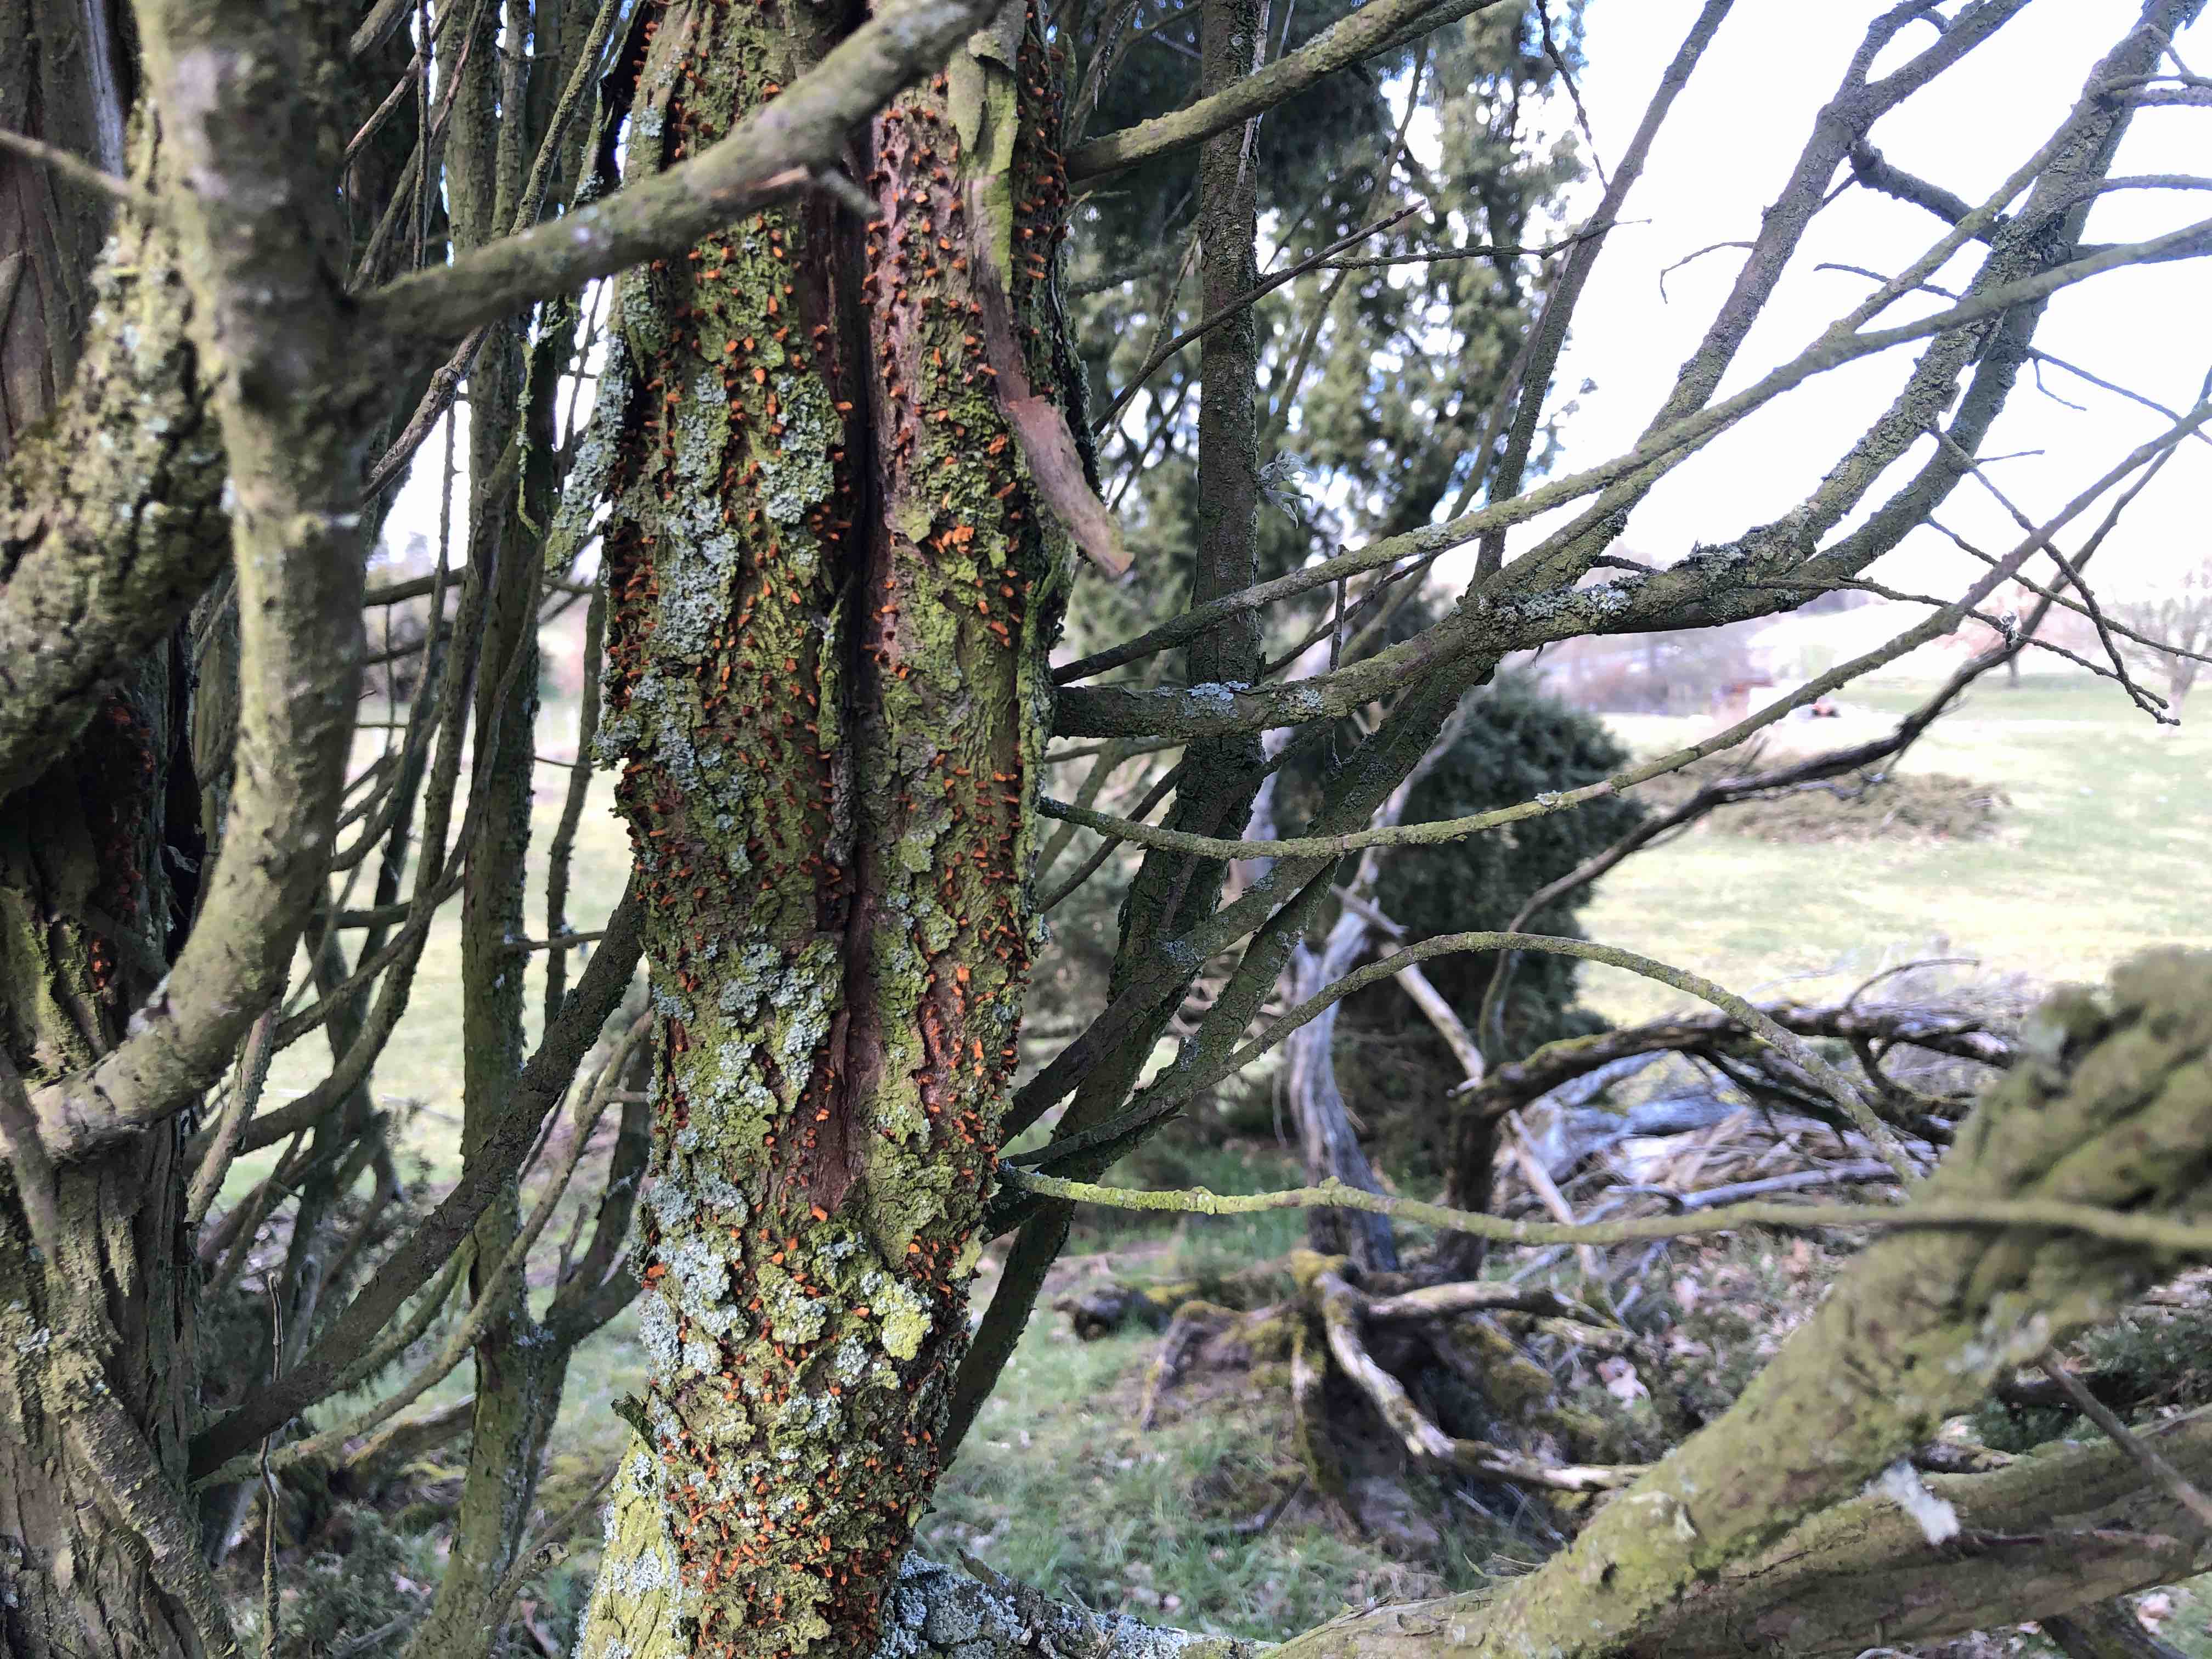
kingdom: Fungi
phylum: Basidiomycota
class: Pucciniomycetes
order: Pucciniales
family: Gymnosporangiaceae
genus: Gymnosporangium
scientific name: Gymnosporangium clavariiforme
